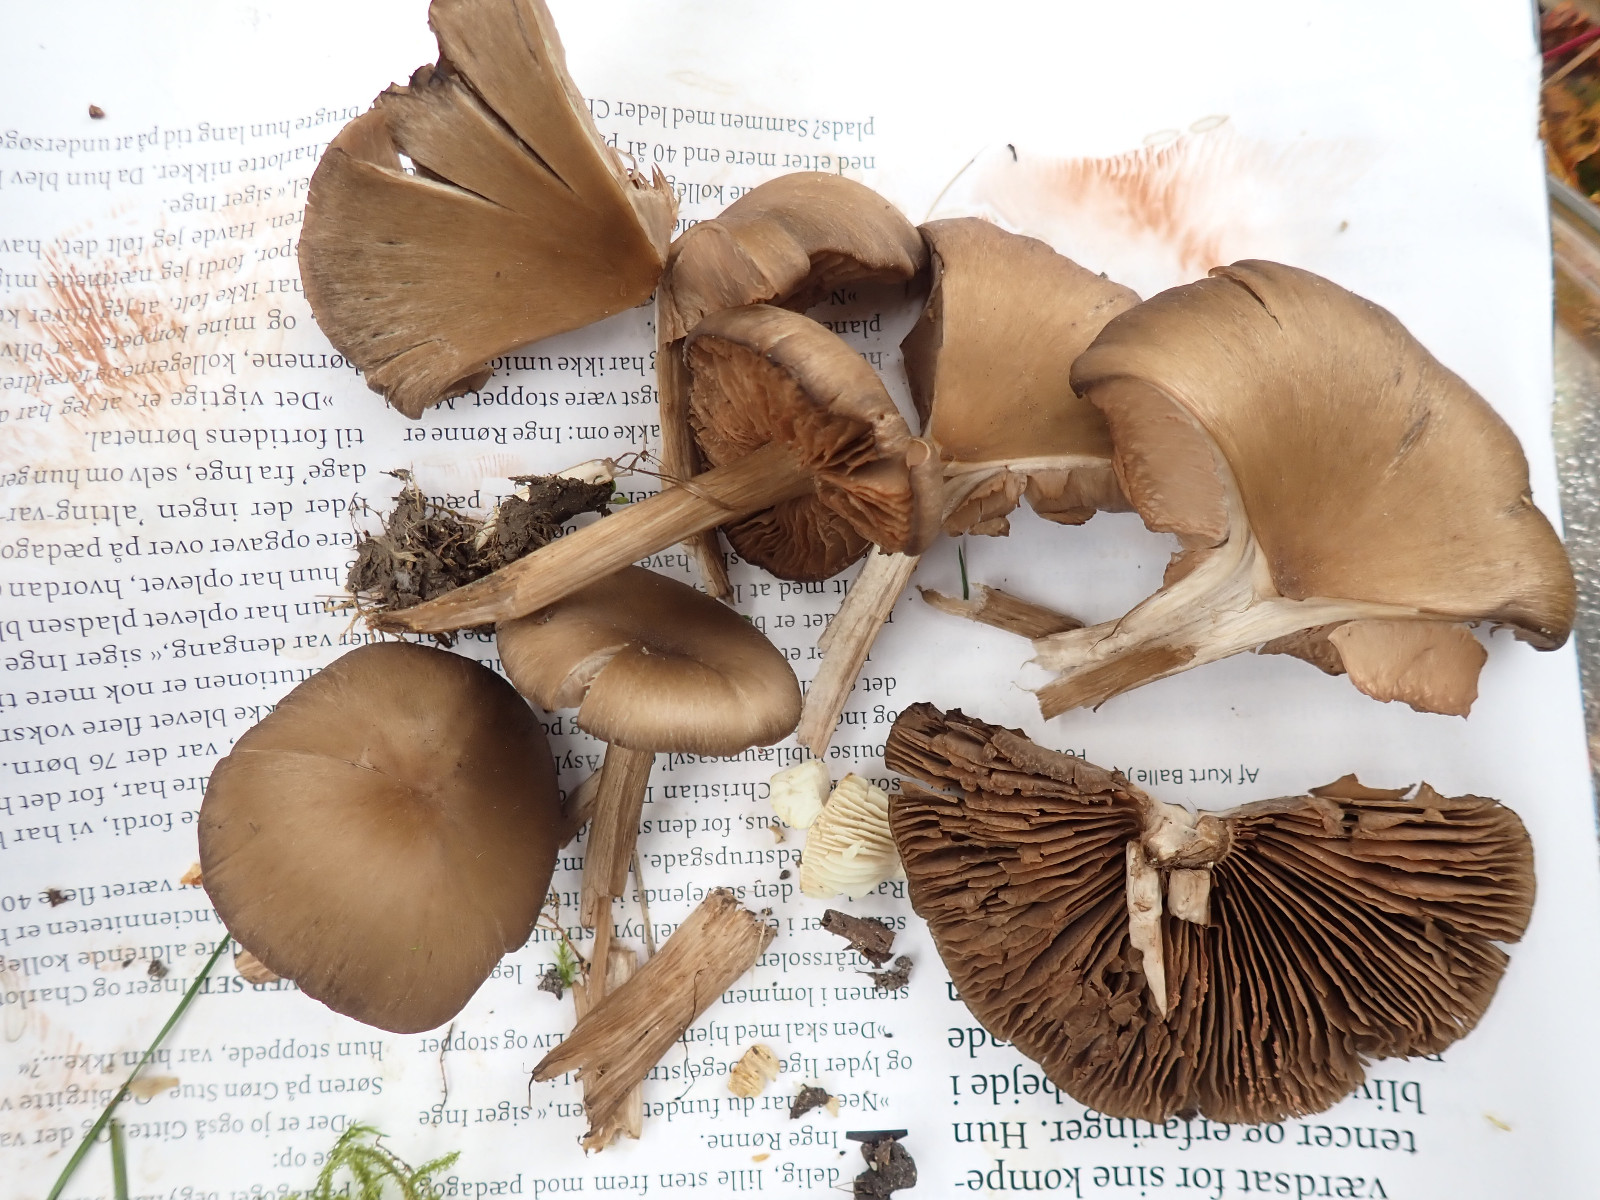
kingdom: Fungi
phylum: Basidiomycota
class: Agaricomycetes
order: Agaricales
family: Entolomataceae
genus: Entoloma
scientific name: Entoloma
